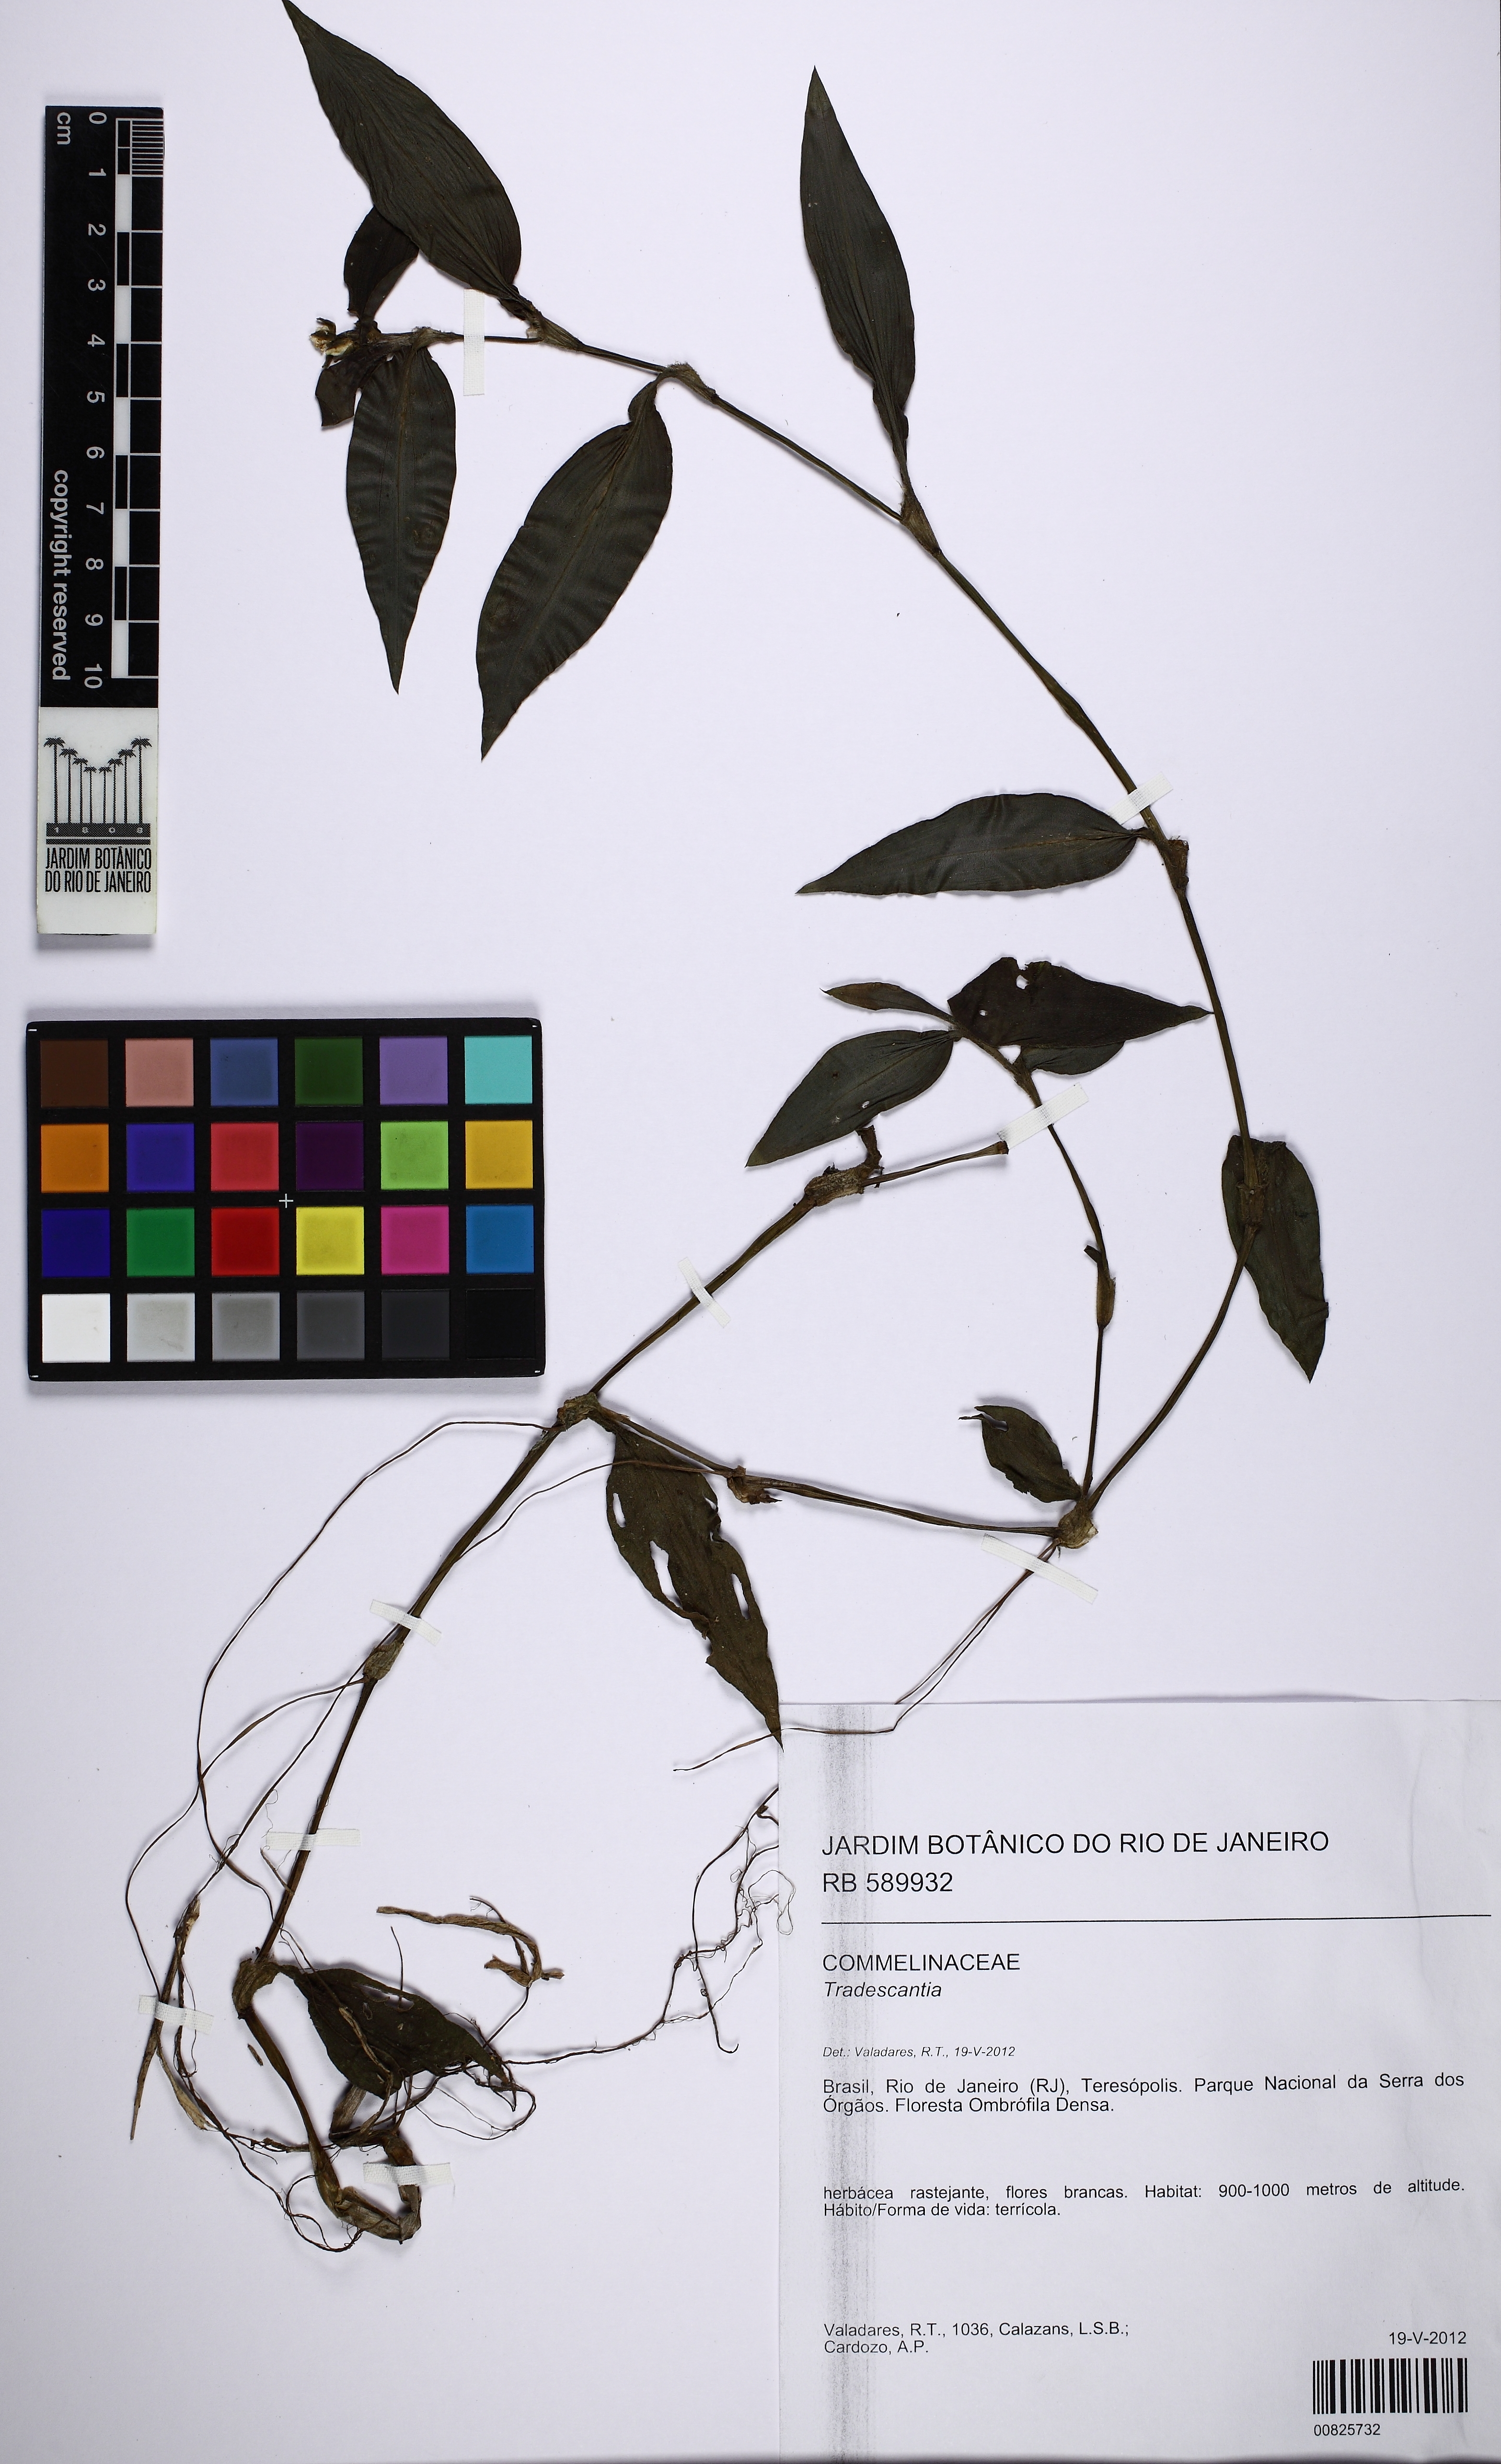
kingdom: Plantae
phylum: Tracheophyta
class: Liliopsida
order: Commelinales
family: Commelinaceae
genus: Tradescantia
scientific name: Tradescantia chrysophylla
